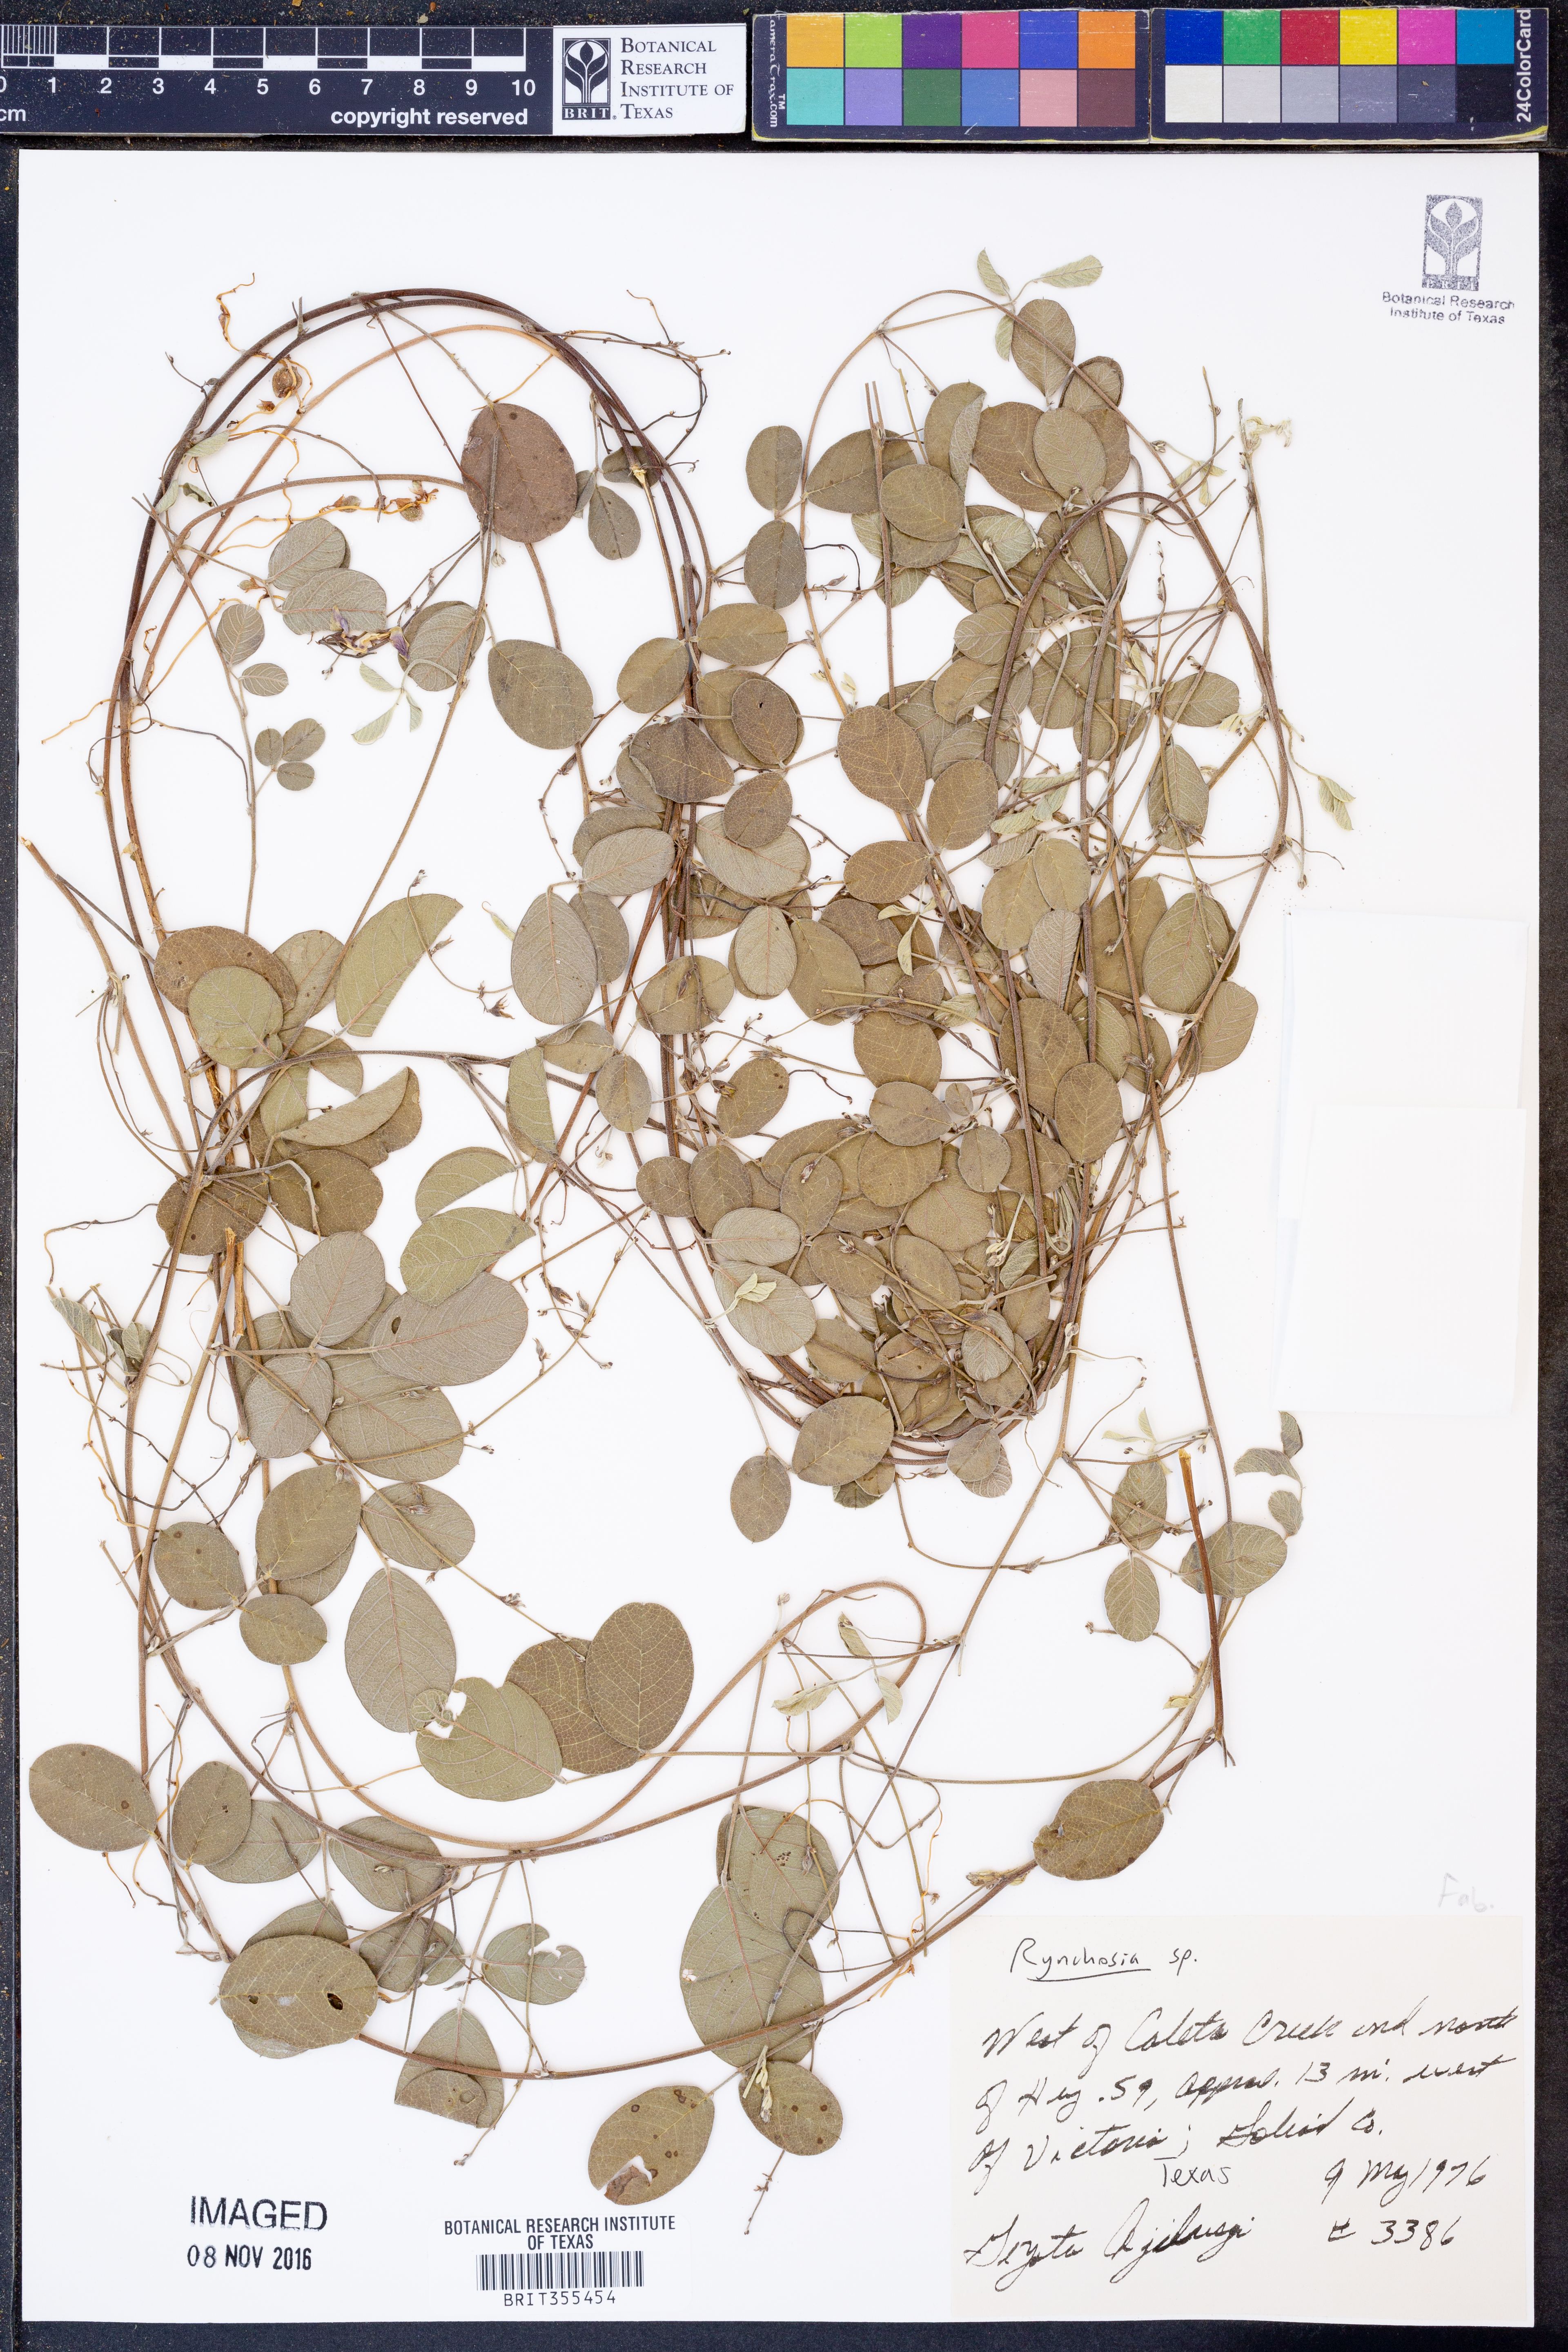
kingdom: Plantae
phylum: Tracheophyta
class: Magnoliopsida
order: Fabales
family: Fabaceae
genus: Rhynchosia
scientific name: Rhynchosia
